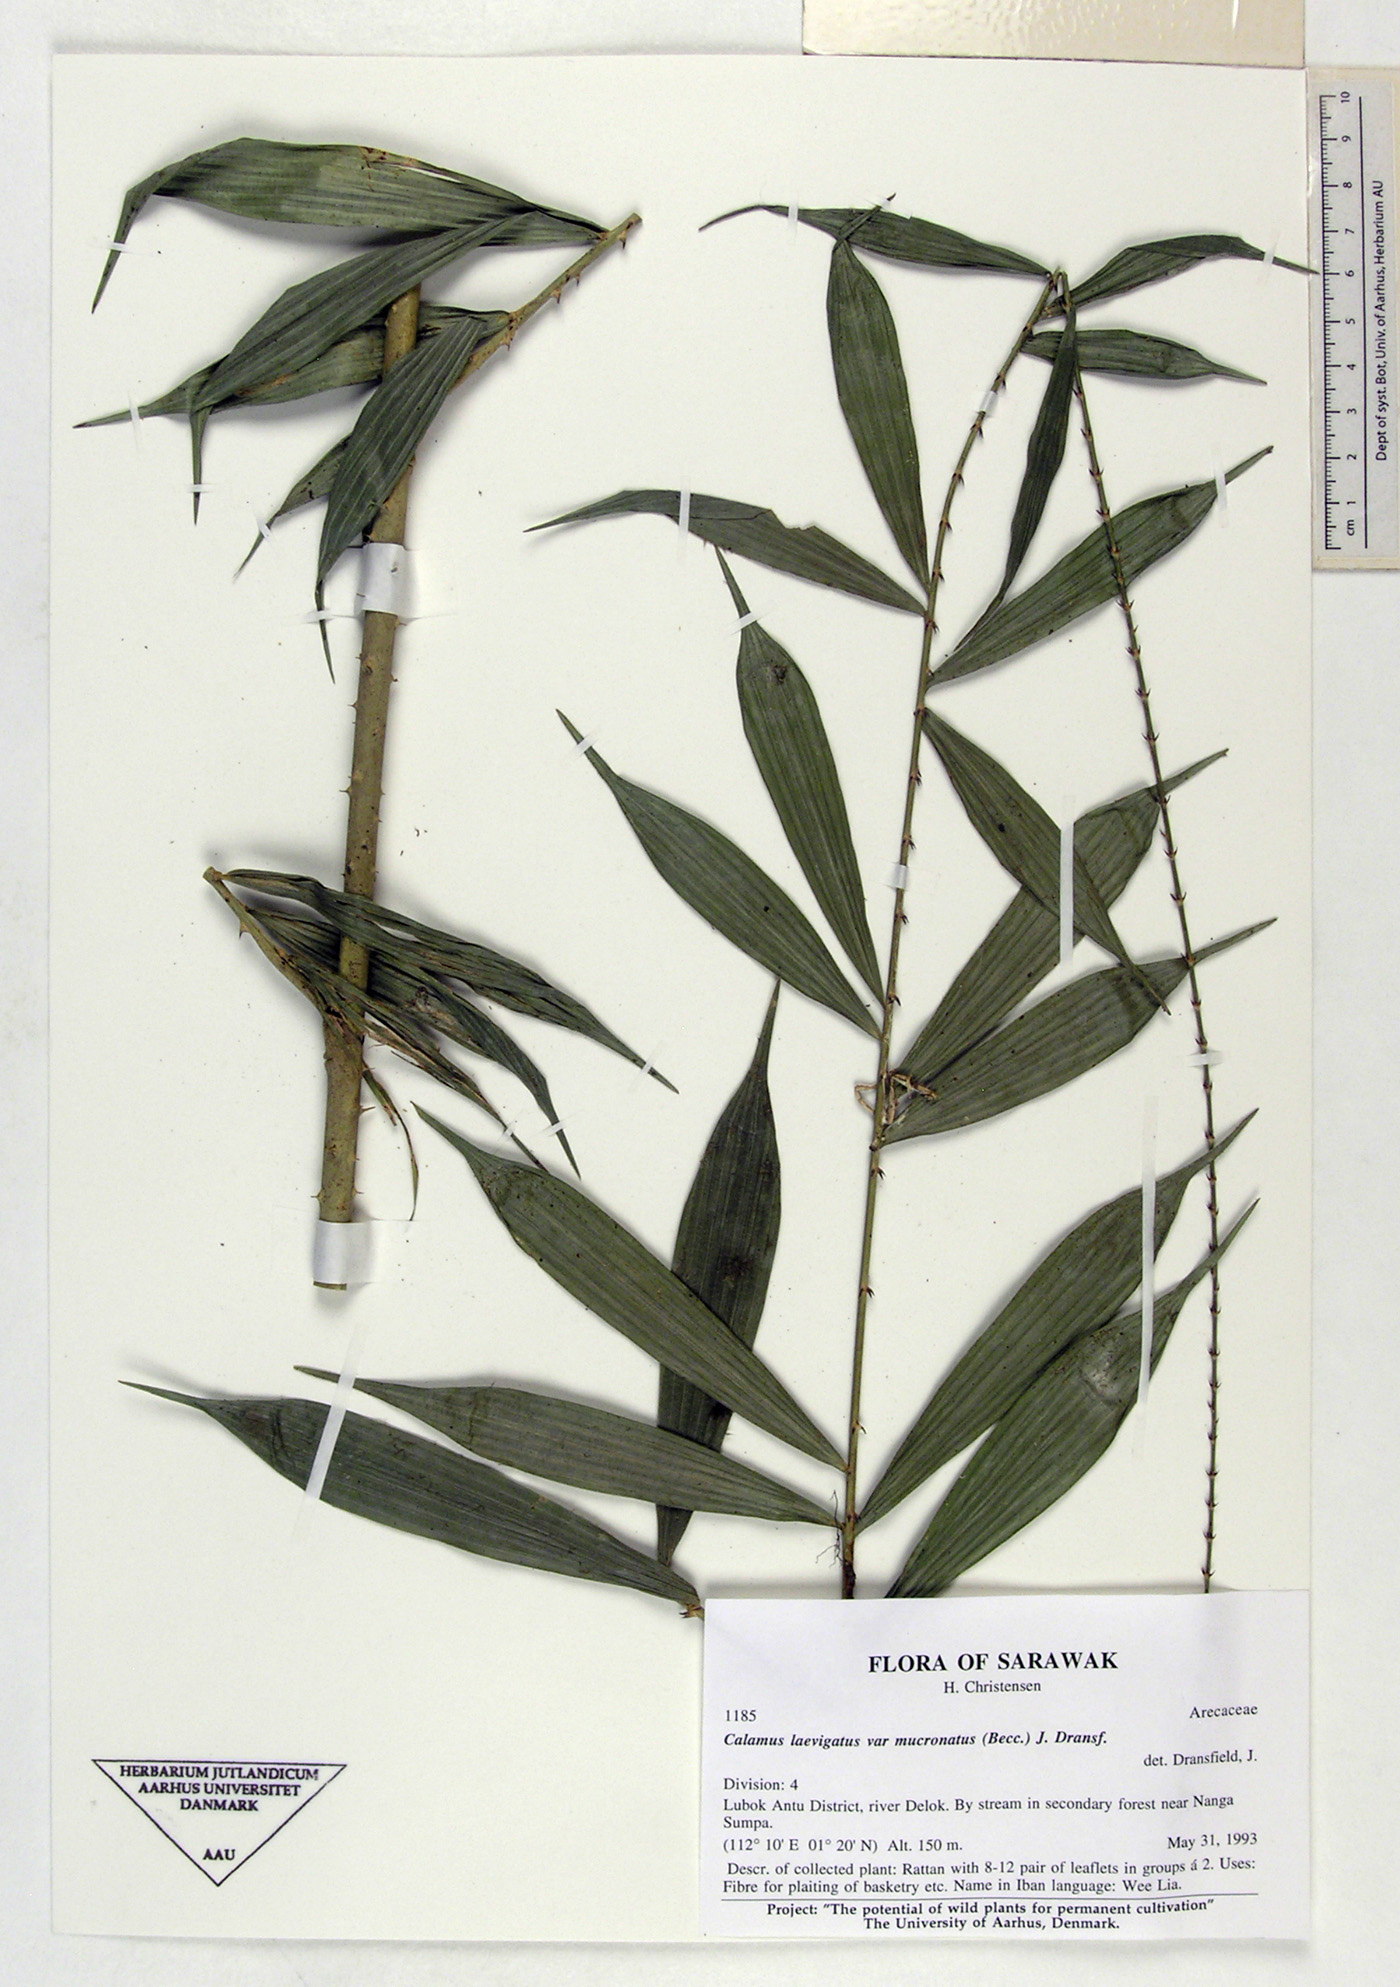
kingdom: Plantae
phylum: Tracheophyta
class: Liliopsida
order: Arecales
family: Arecaceae
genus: Calamus
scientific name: Calamus laevigatus
